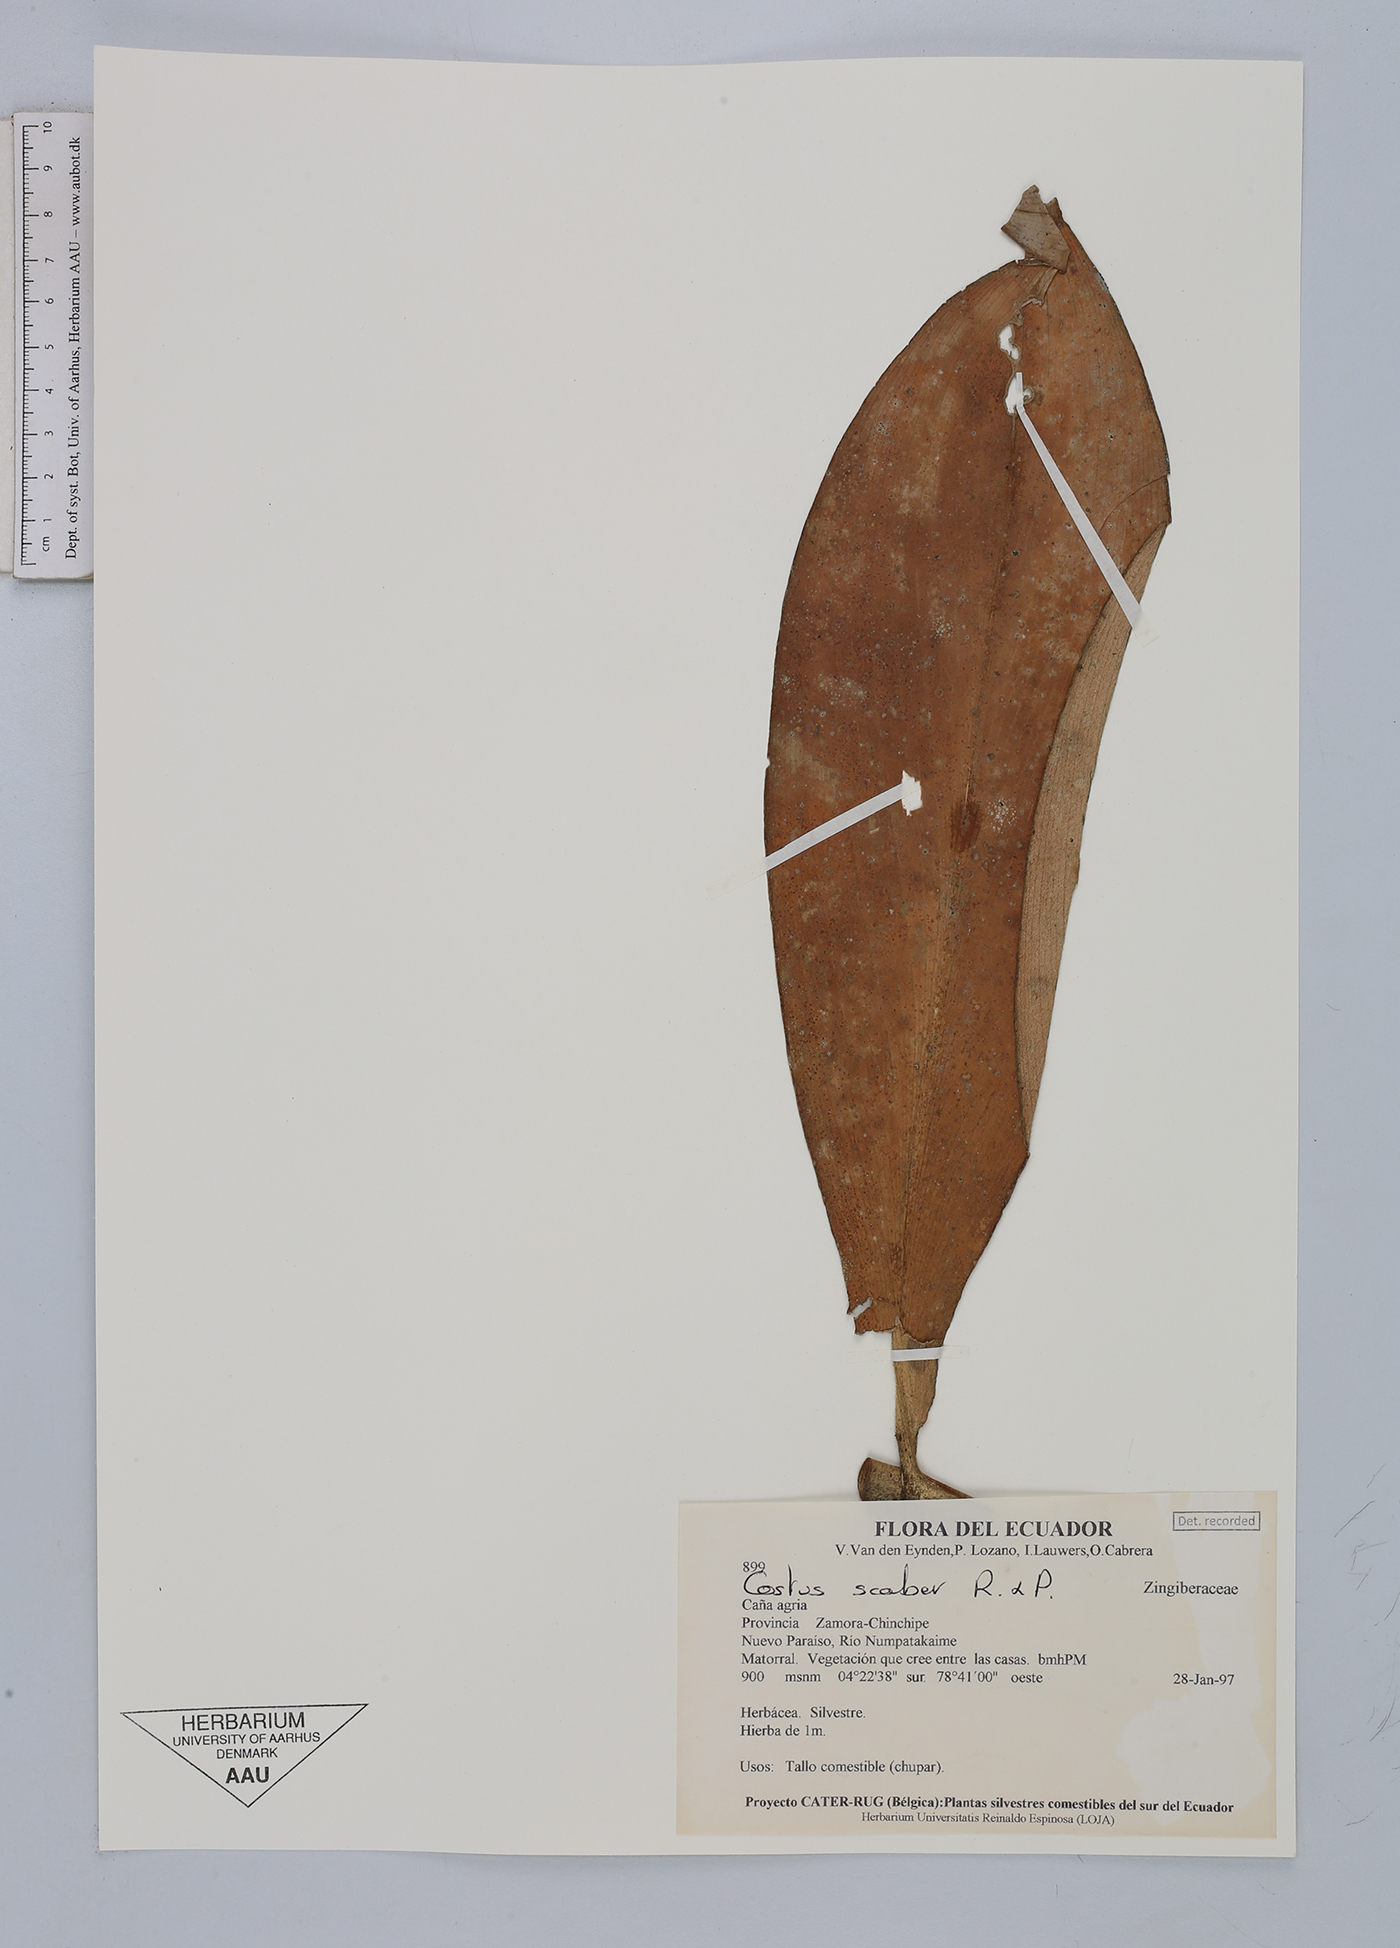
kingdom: Plantae
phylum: Tracheophyta
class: Liliopsida
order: Zingiberales
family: Costaceae
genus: Costus
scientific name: Costus scaber
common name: Spiral head ginger
